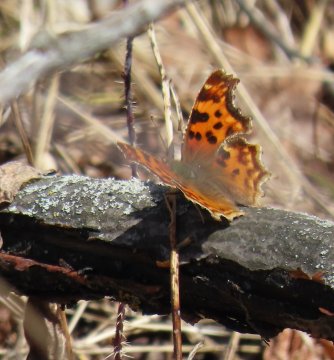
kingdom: Animalia
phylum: Arthropoda
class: Insecta
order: Lepidoptera
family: Nymphalidae
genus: Polygonia
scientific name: Polygonia satyrus
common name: Satyr Comma
